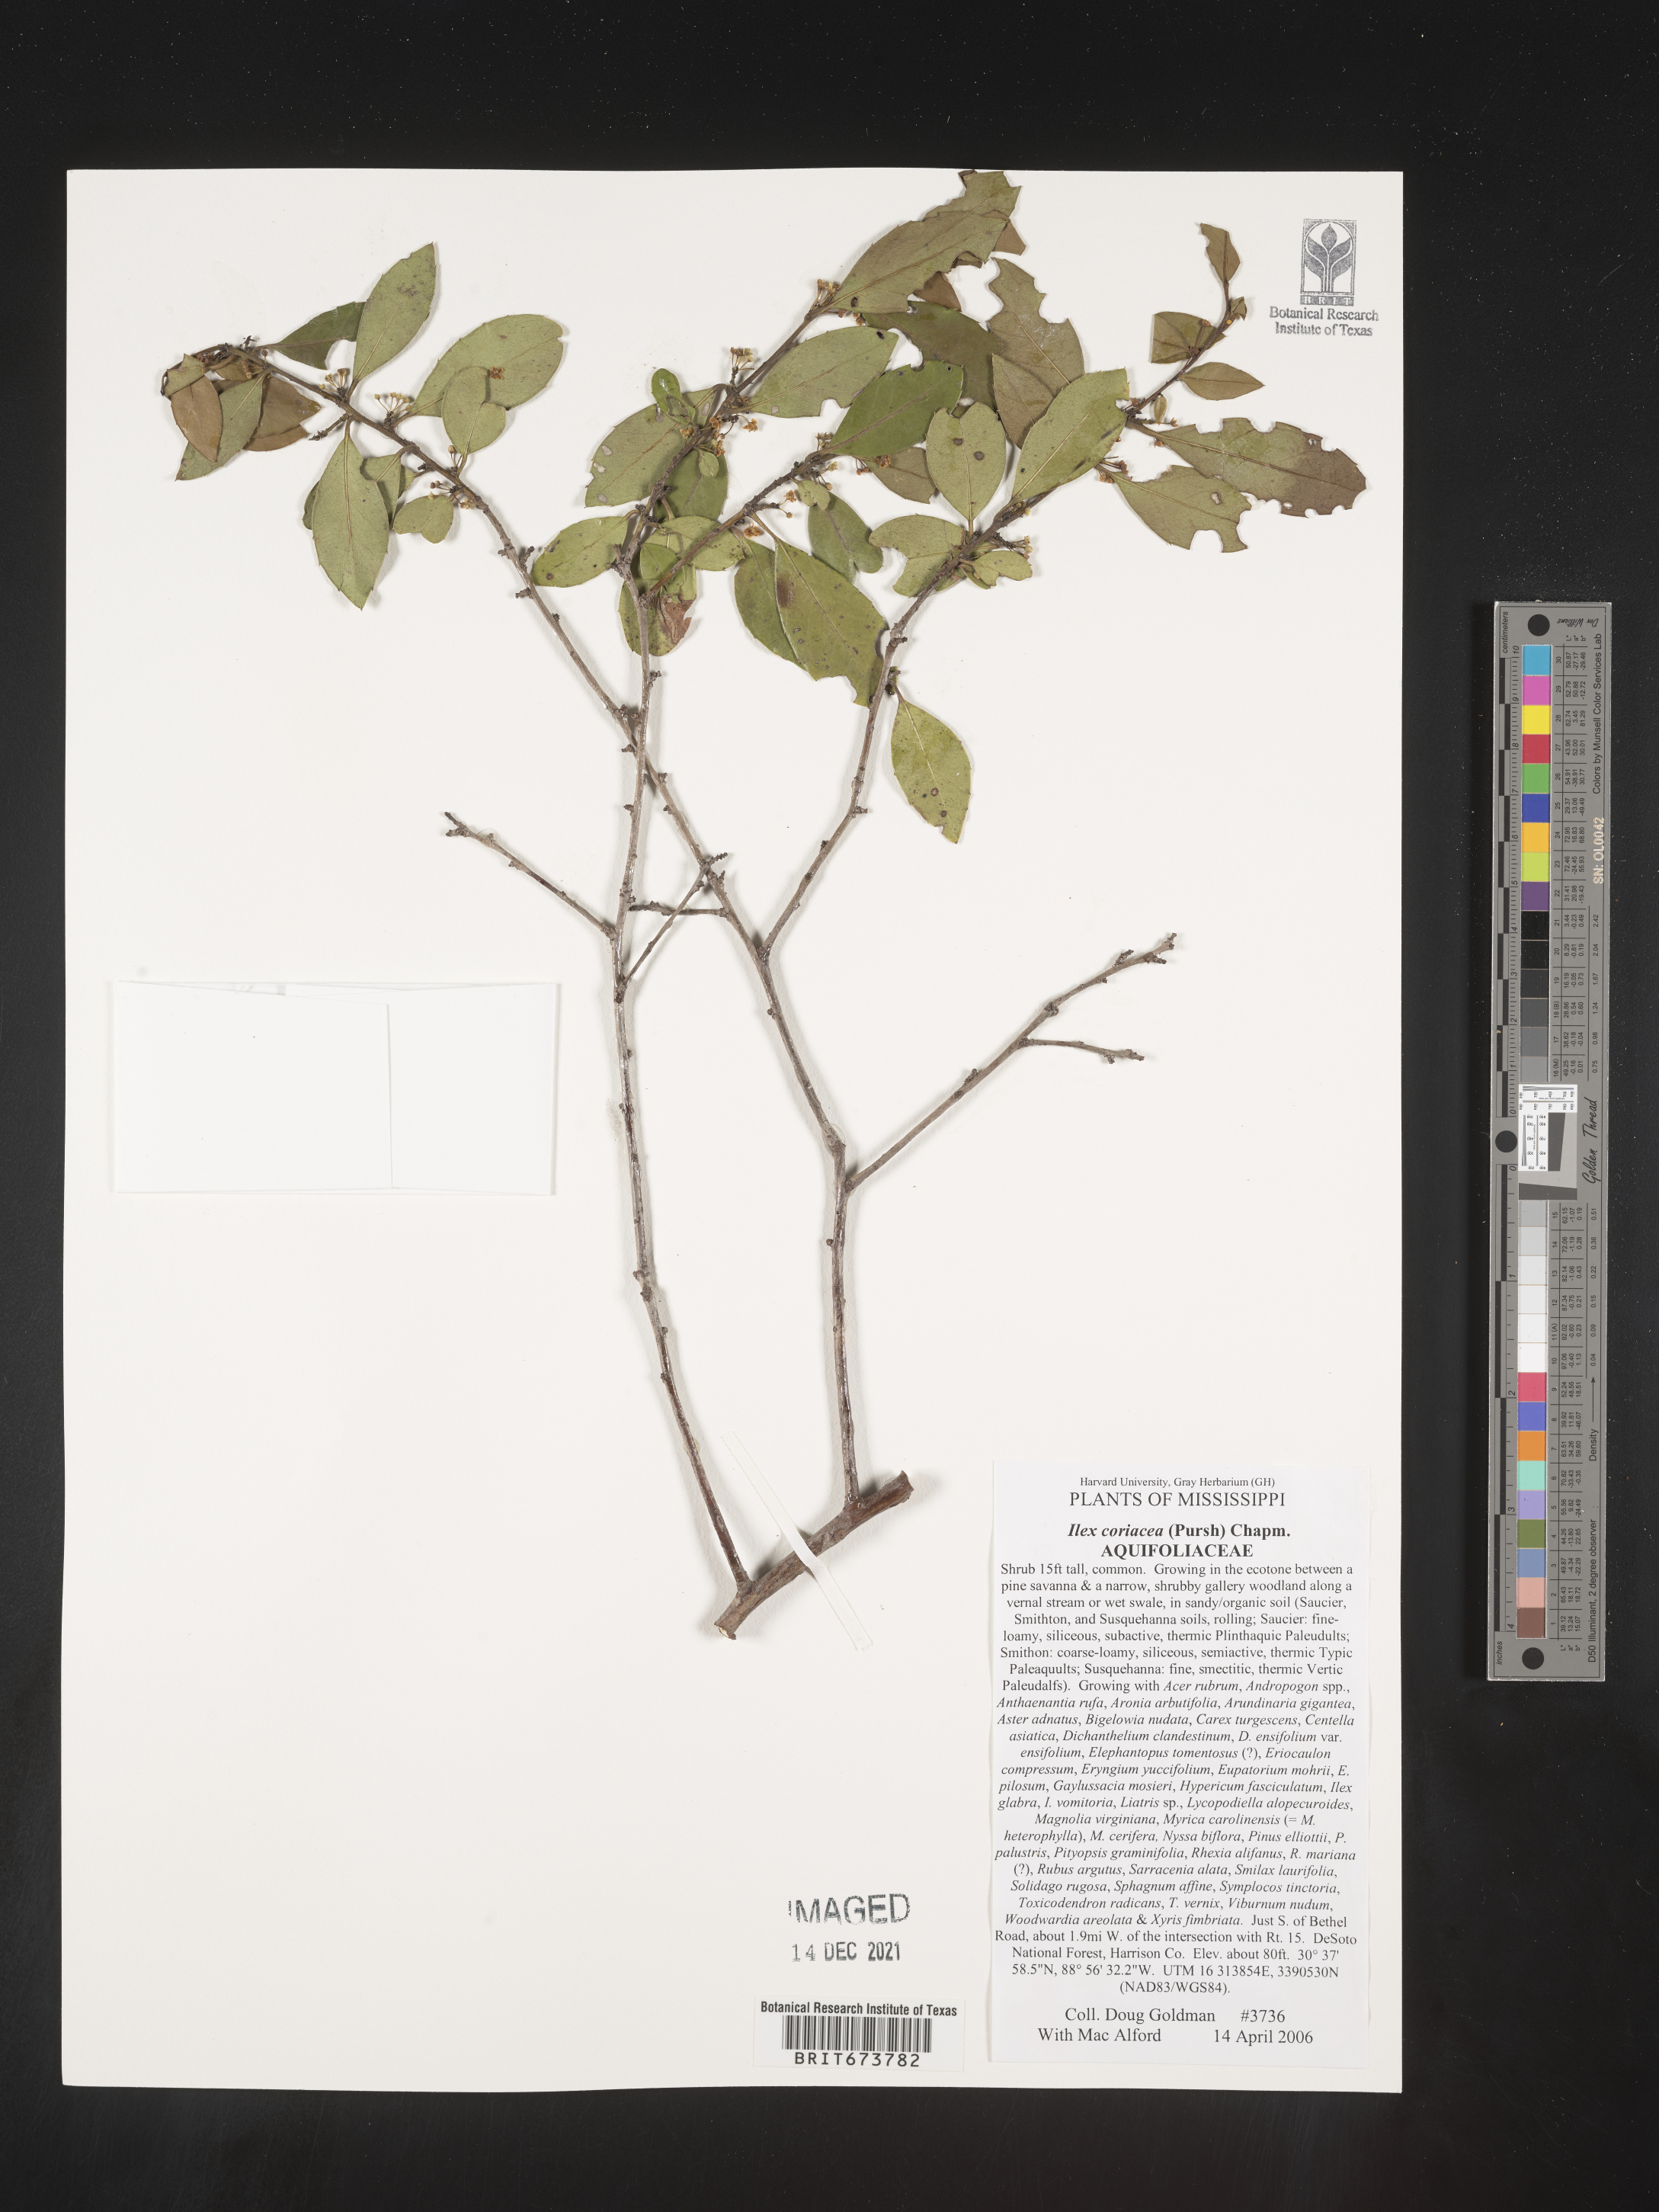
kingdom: Plantae
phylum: Tracheophyta
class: Magnoliopsida
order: Aquifoliales
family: Aquifoliaceae
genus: Ilex
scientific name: Ilex coriacea
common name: Sweet gallberry
